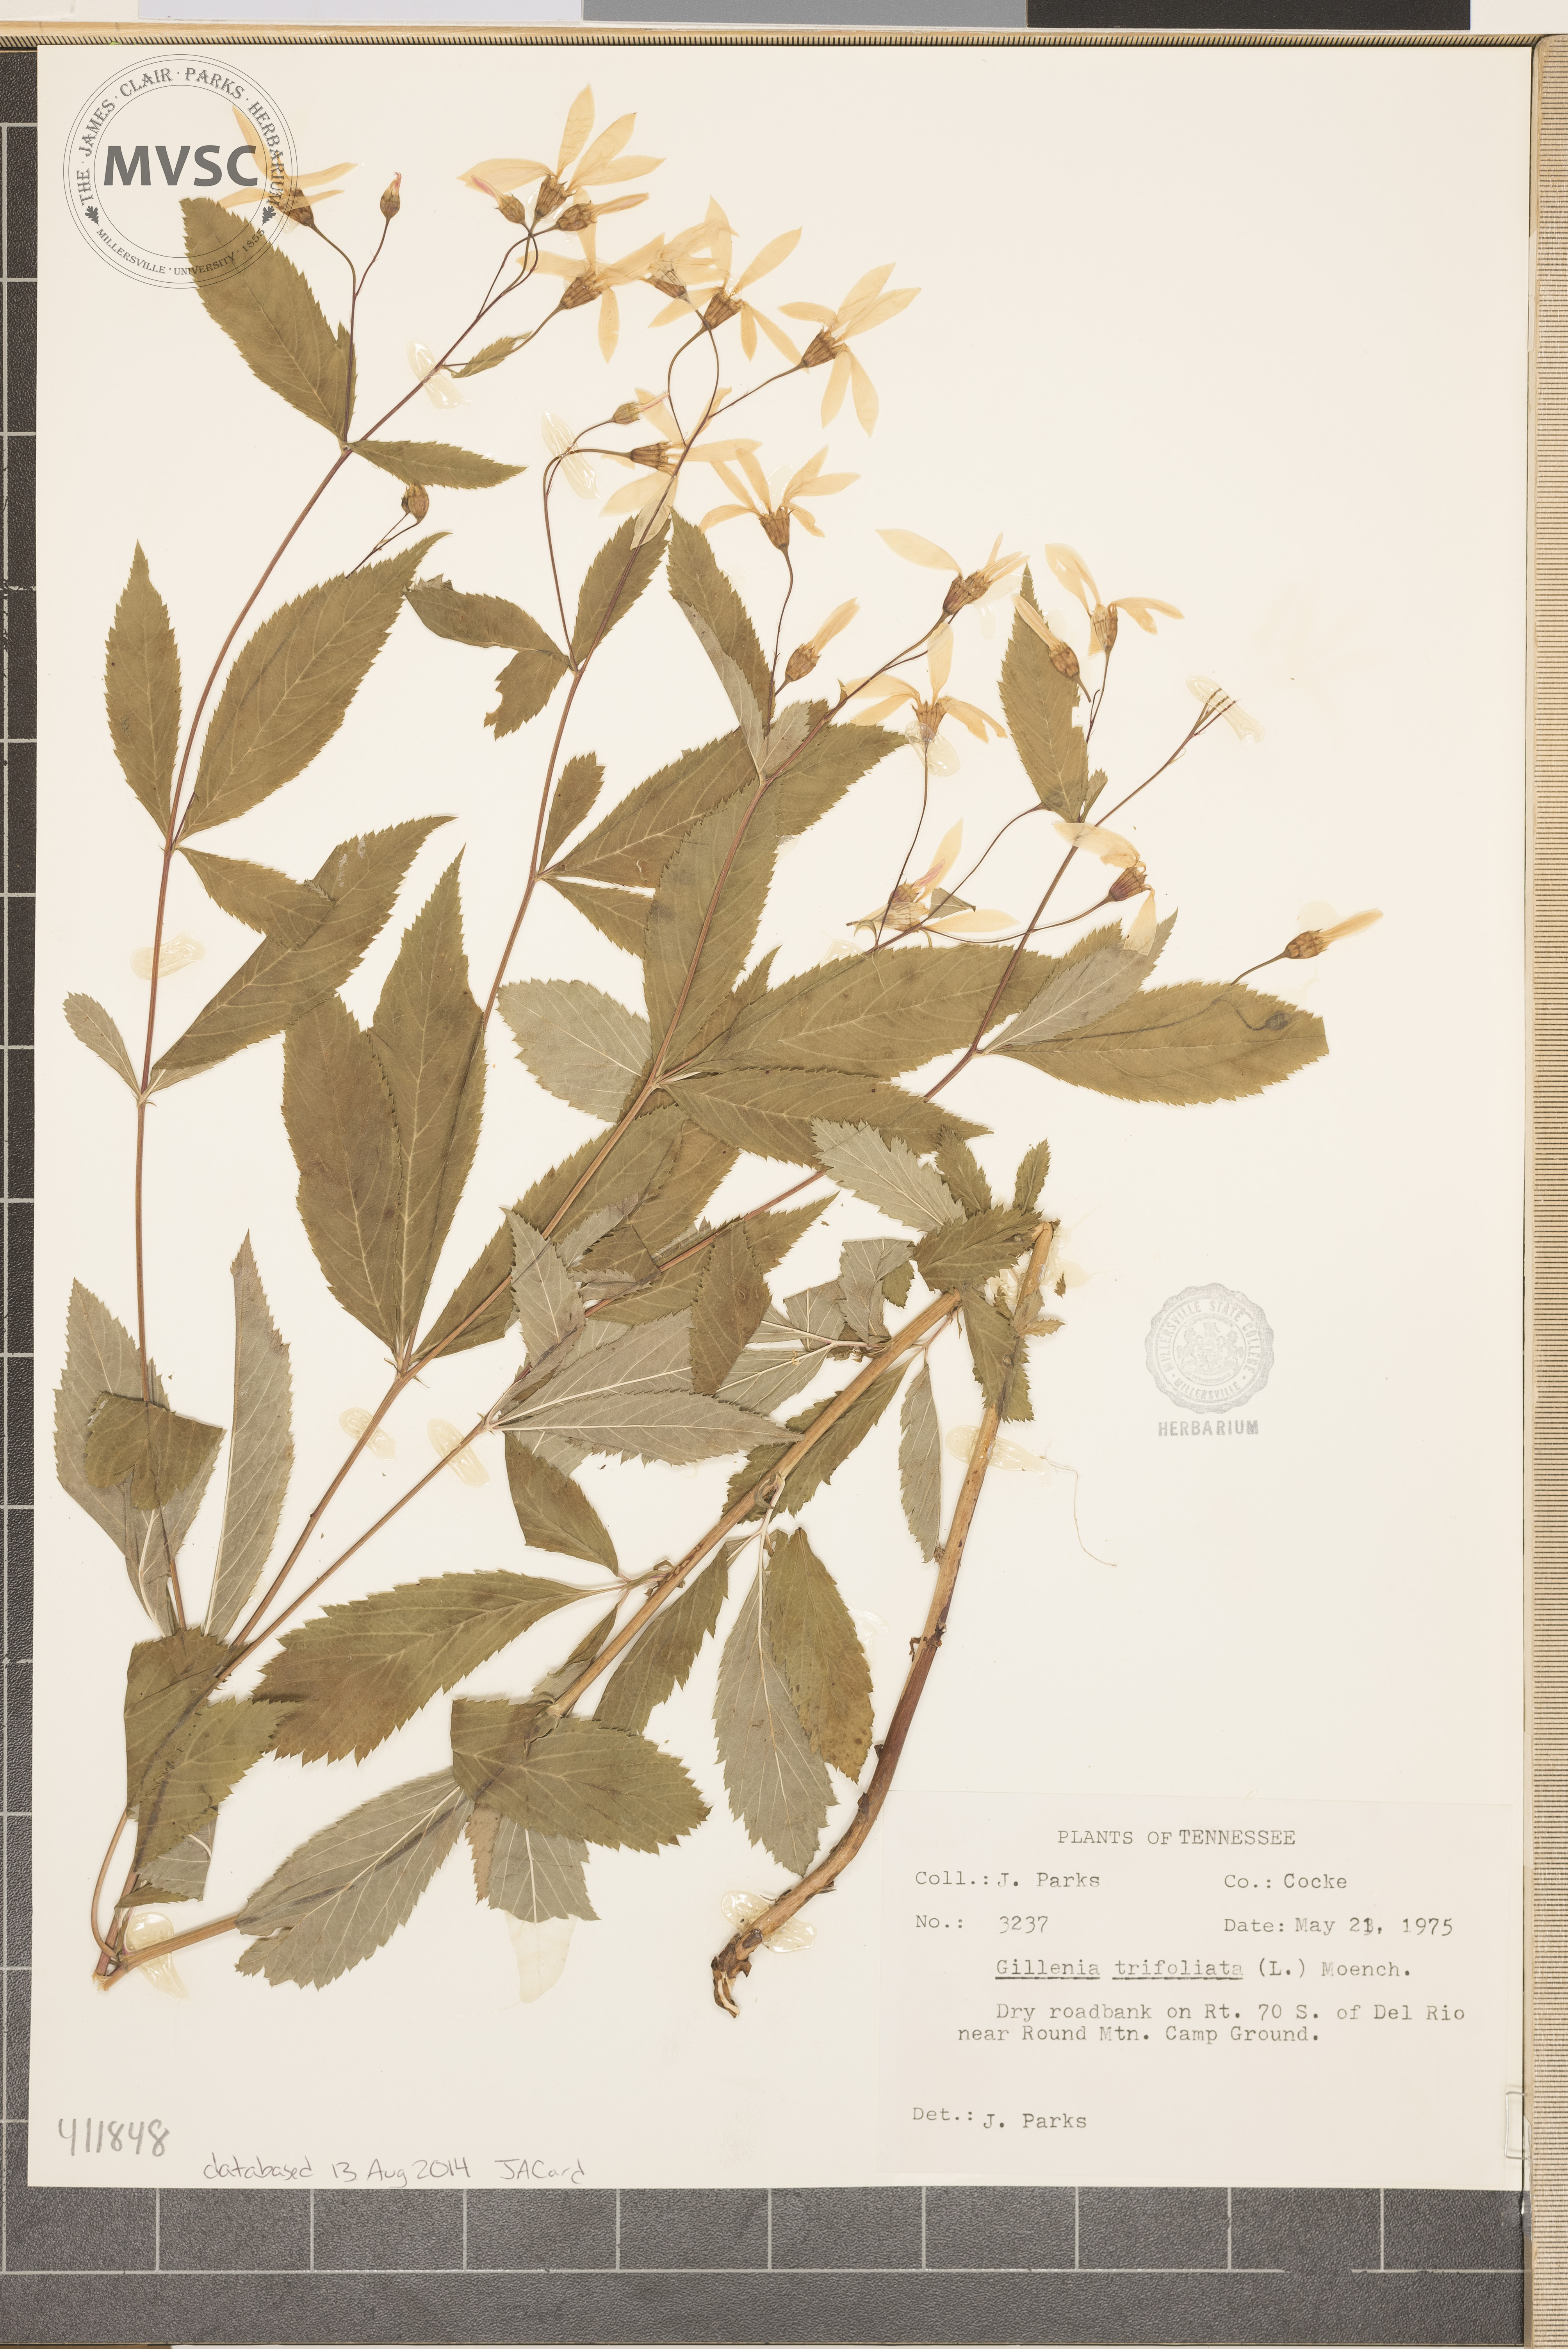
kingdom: Plantae
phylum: Tracheophyta
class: Magnoliopsida
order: Rosales
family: Rosaceae
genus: Gillenia
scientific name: Gillenia trifoliata
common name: Bowman's-root
